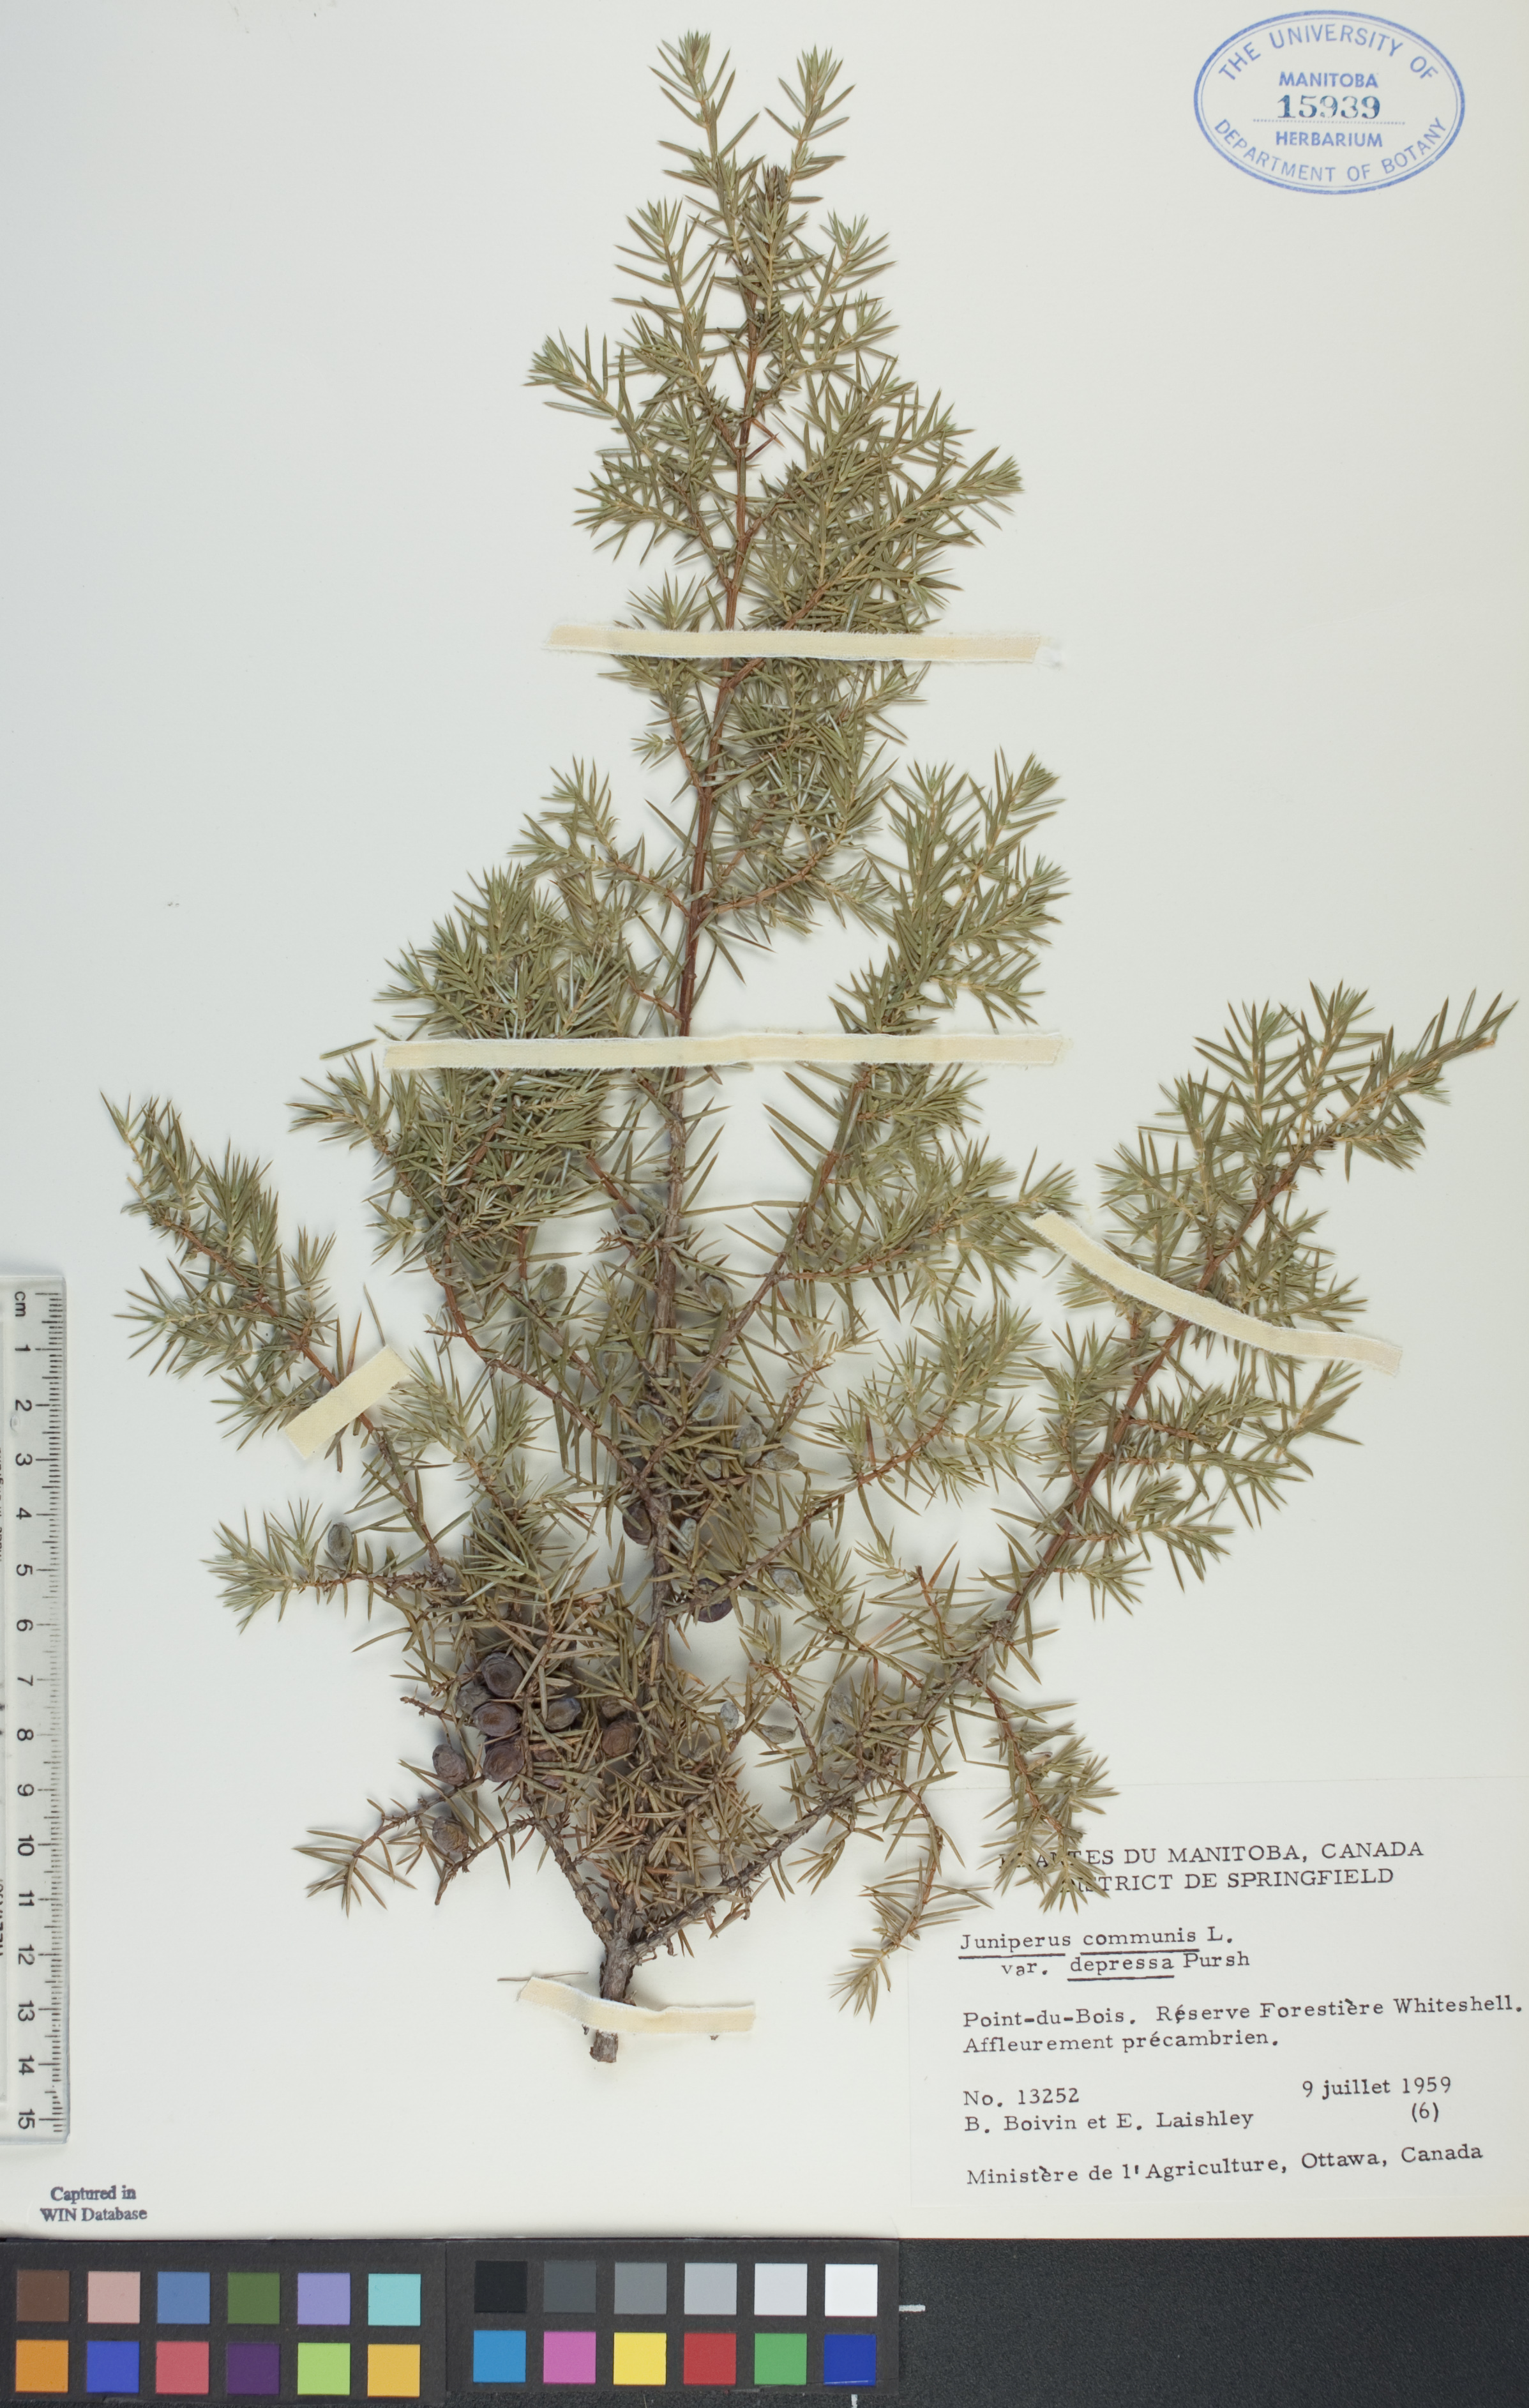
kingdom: Plantae
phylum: Tracheophyta
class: Pinopsida
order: Pinales
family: Cupressaceae
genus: Juniperus
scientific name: Juniperus communis
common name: Common juniper
